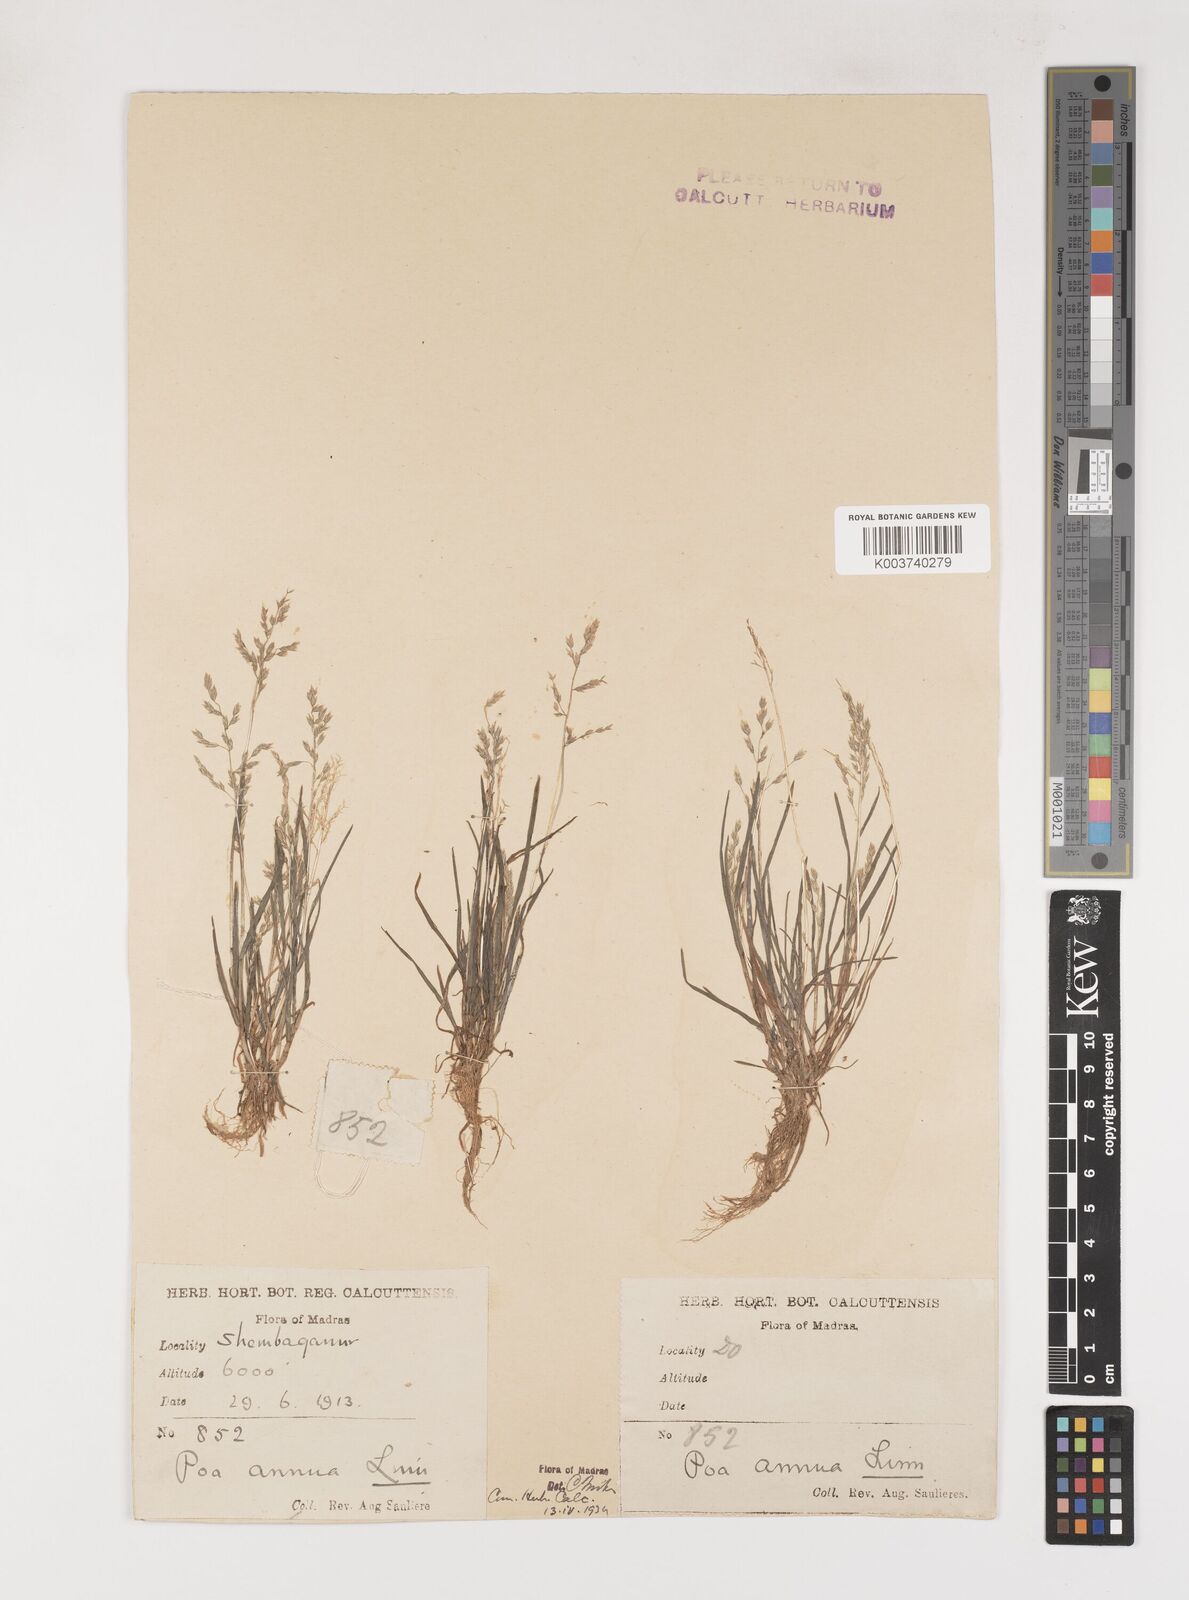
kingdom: Plantae
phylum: Tracheophyta
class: Liliopsida
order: Poales
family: Poaceae
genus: Poa
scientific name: Poa annua
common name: Annual bluegrass
